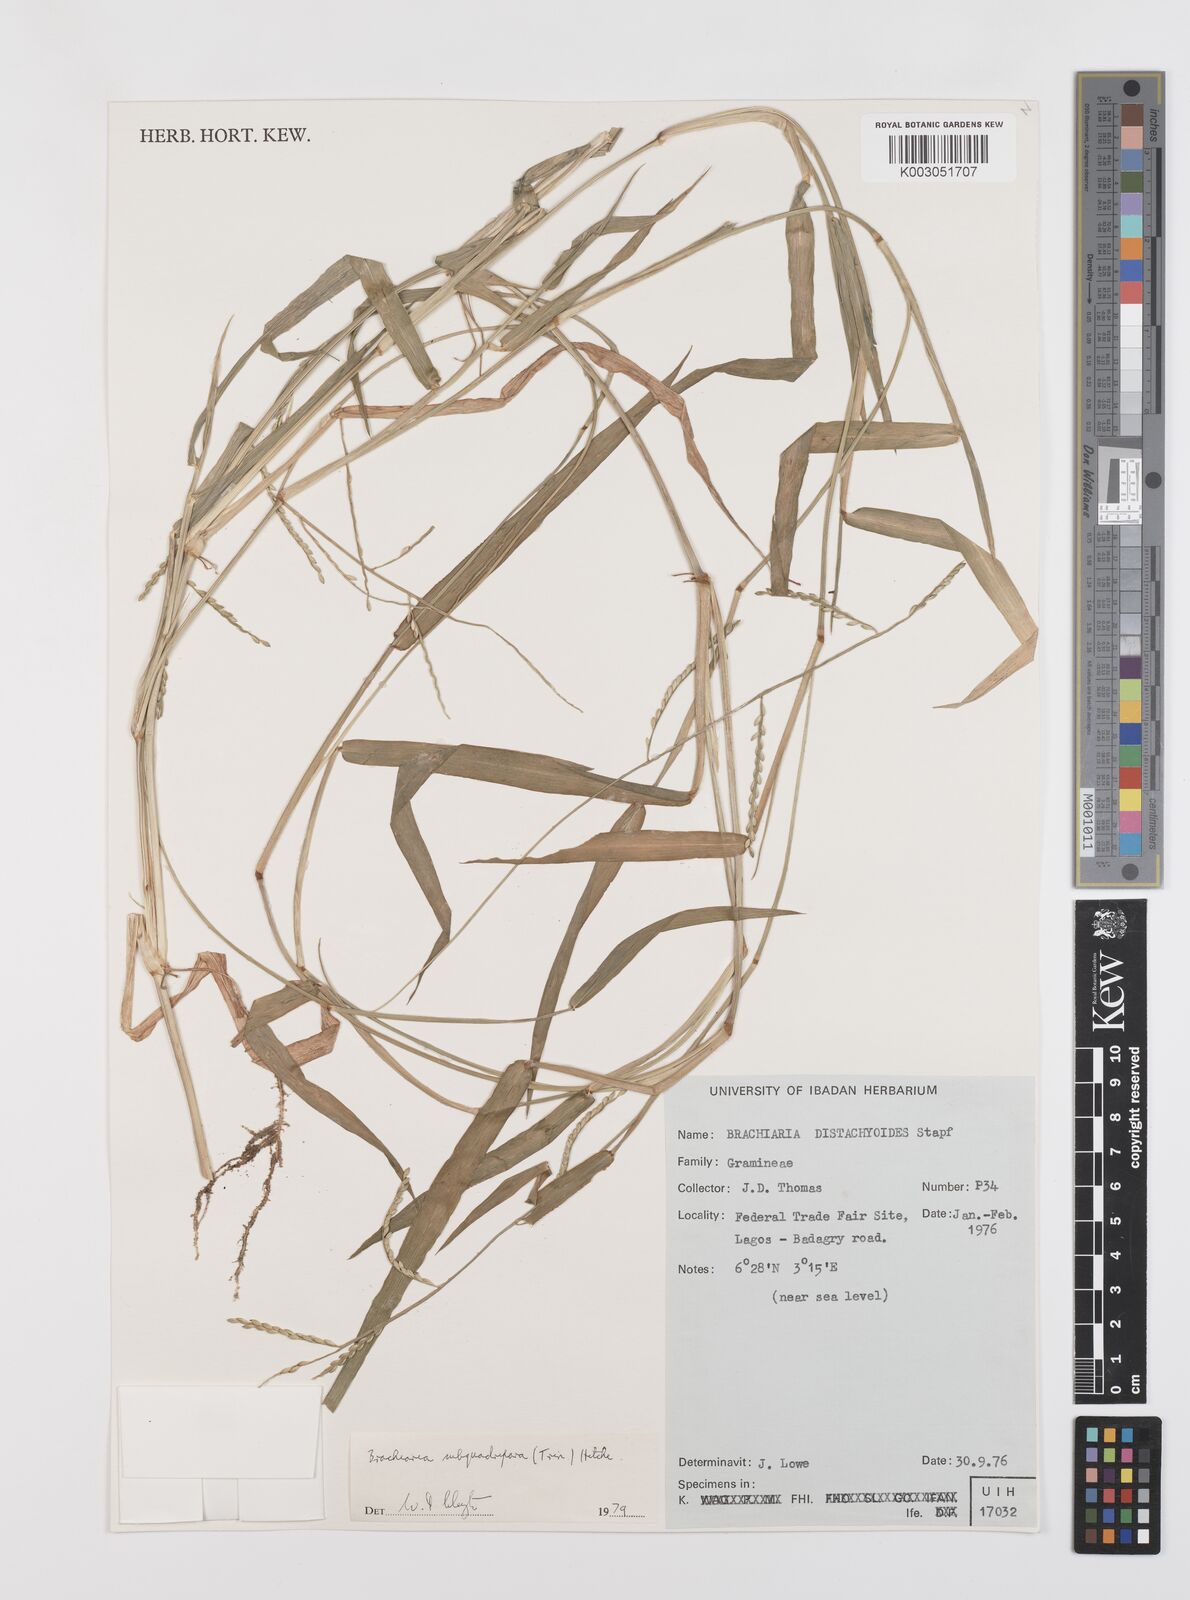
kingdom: Plantae
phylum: Tracheophyta
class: Liliopsida
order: Poales
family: Poaceae
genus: Urochloa
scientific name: Urochloa subquadripara
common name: Armgrass millet
